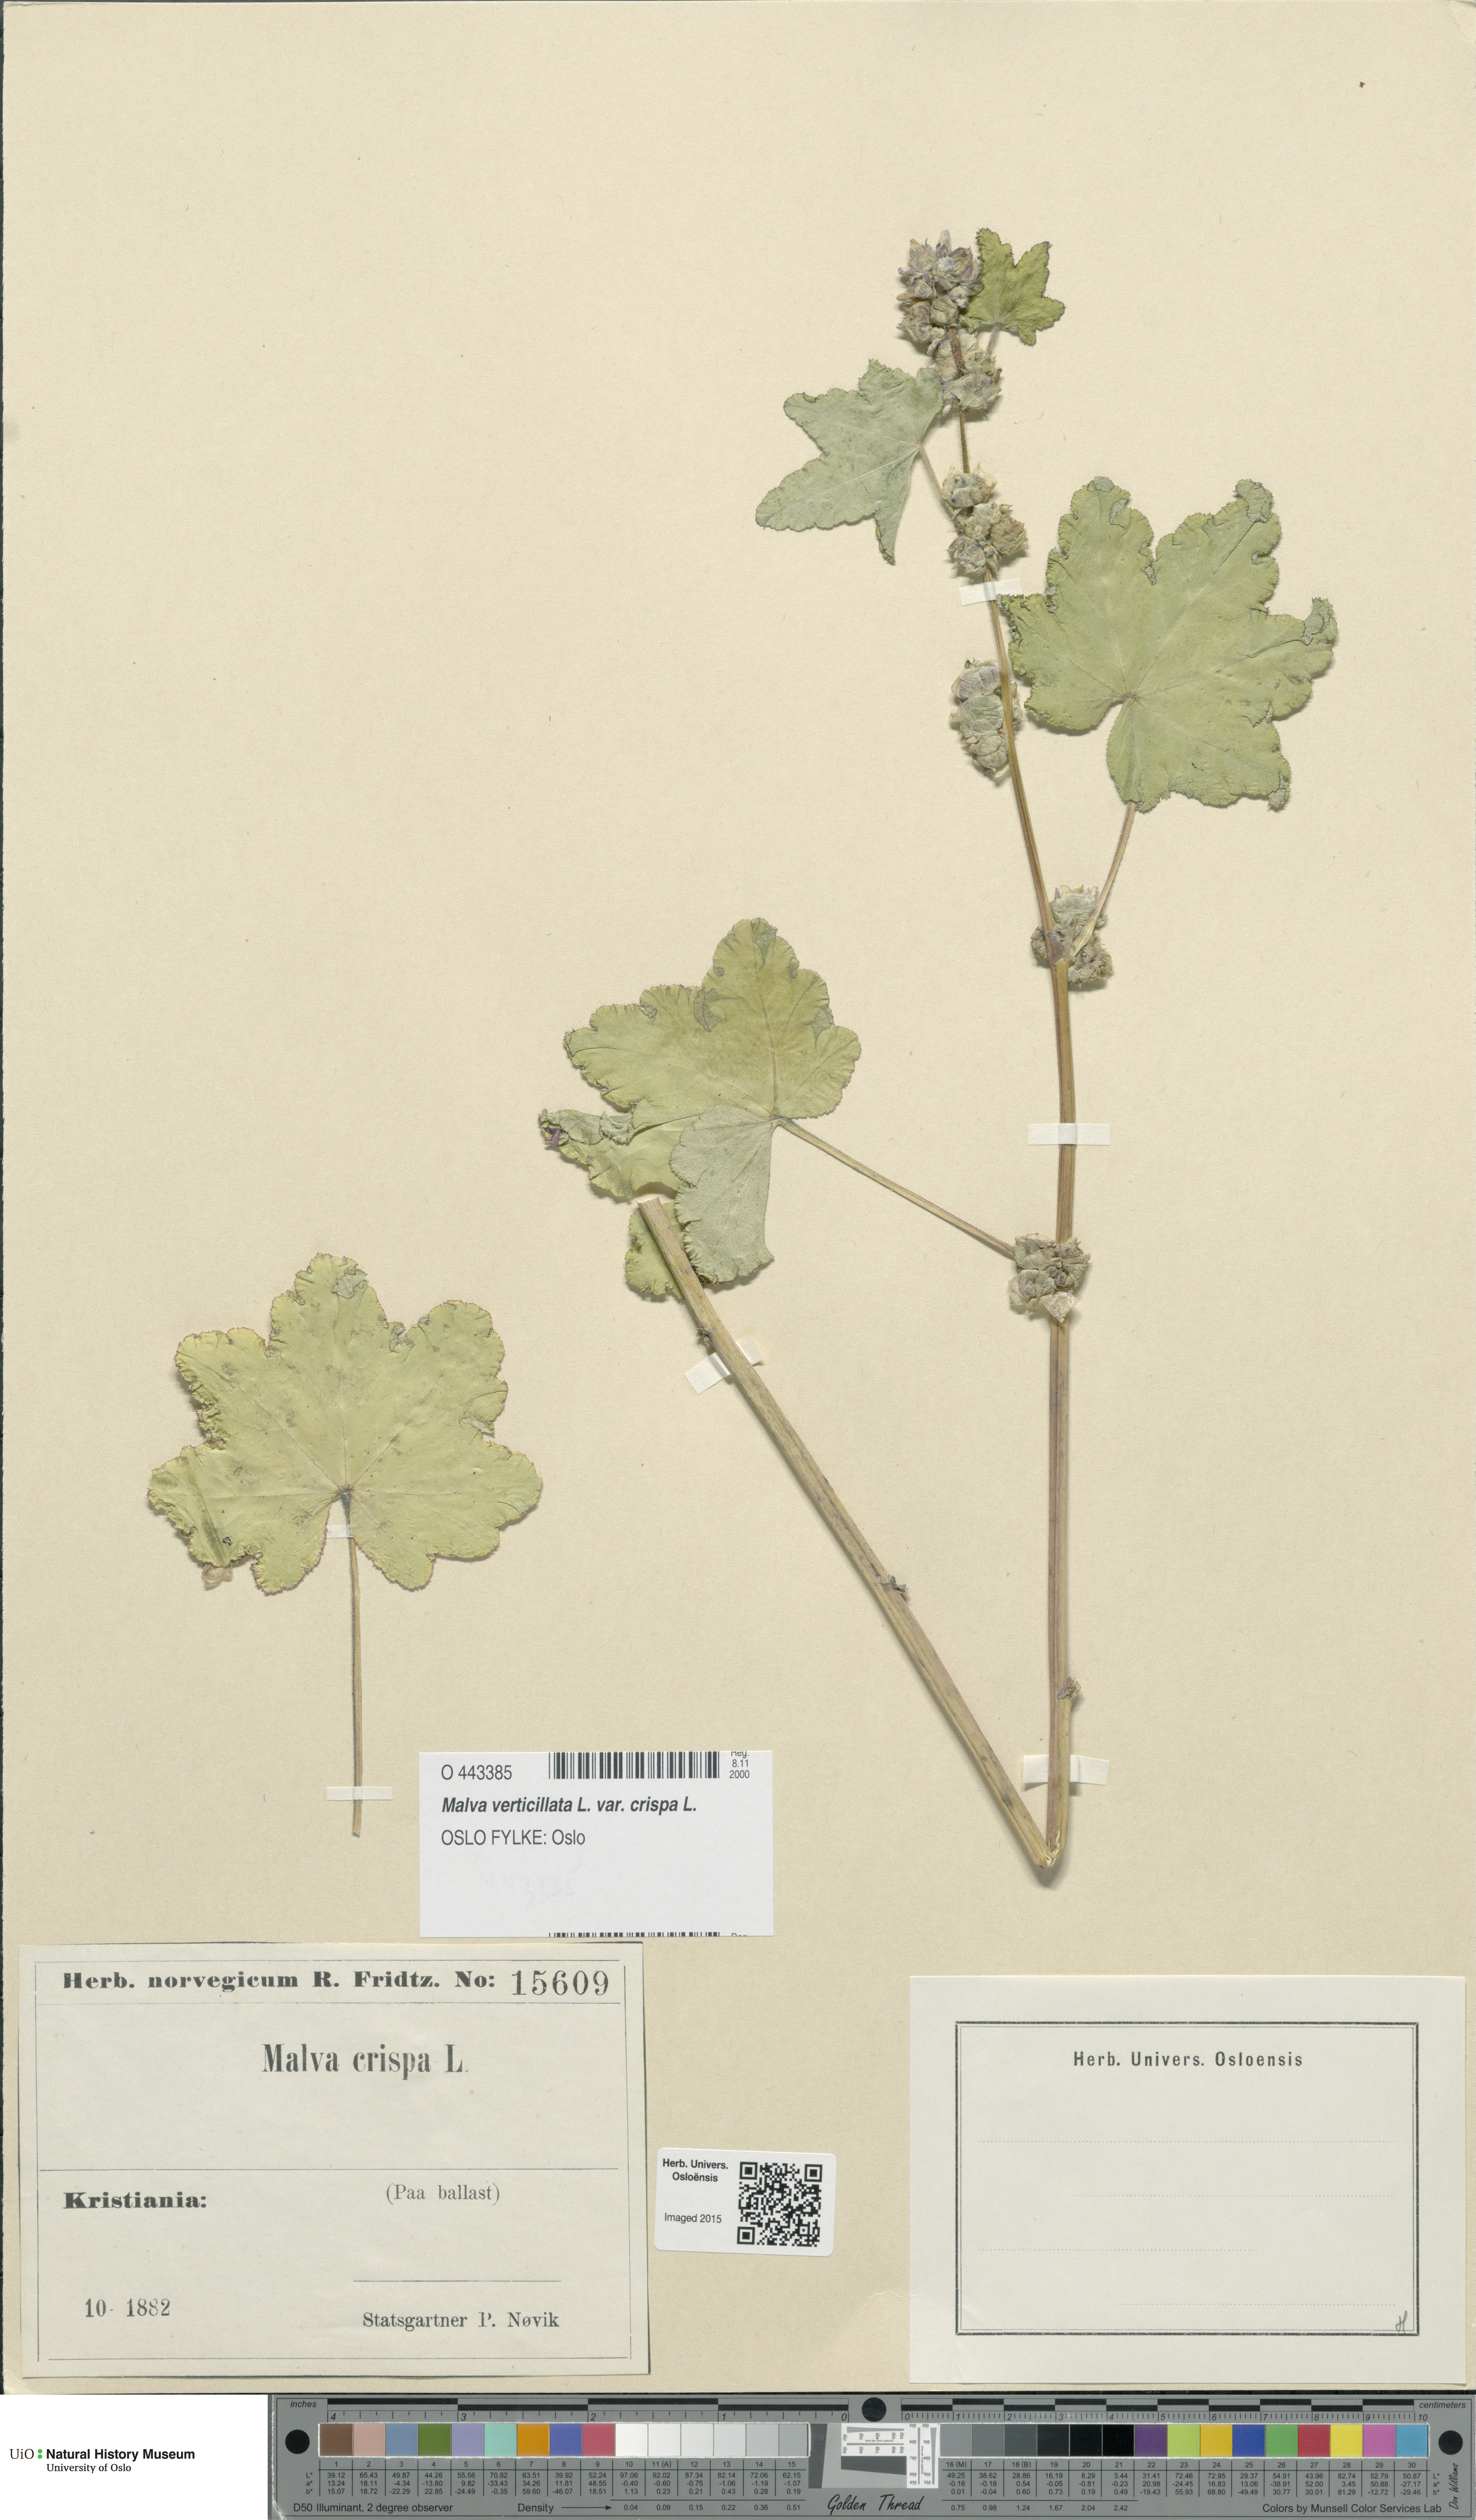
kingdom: Plantae
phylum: Tracheophyta
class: Magnoliopsida
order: Malvales
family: Malvaceae
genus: Malva
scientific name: Malva verticillata
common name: Chinese mallow
